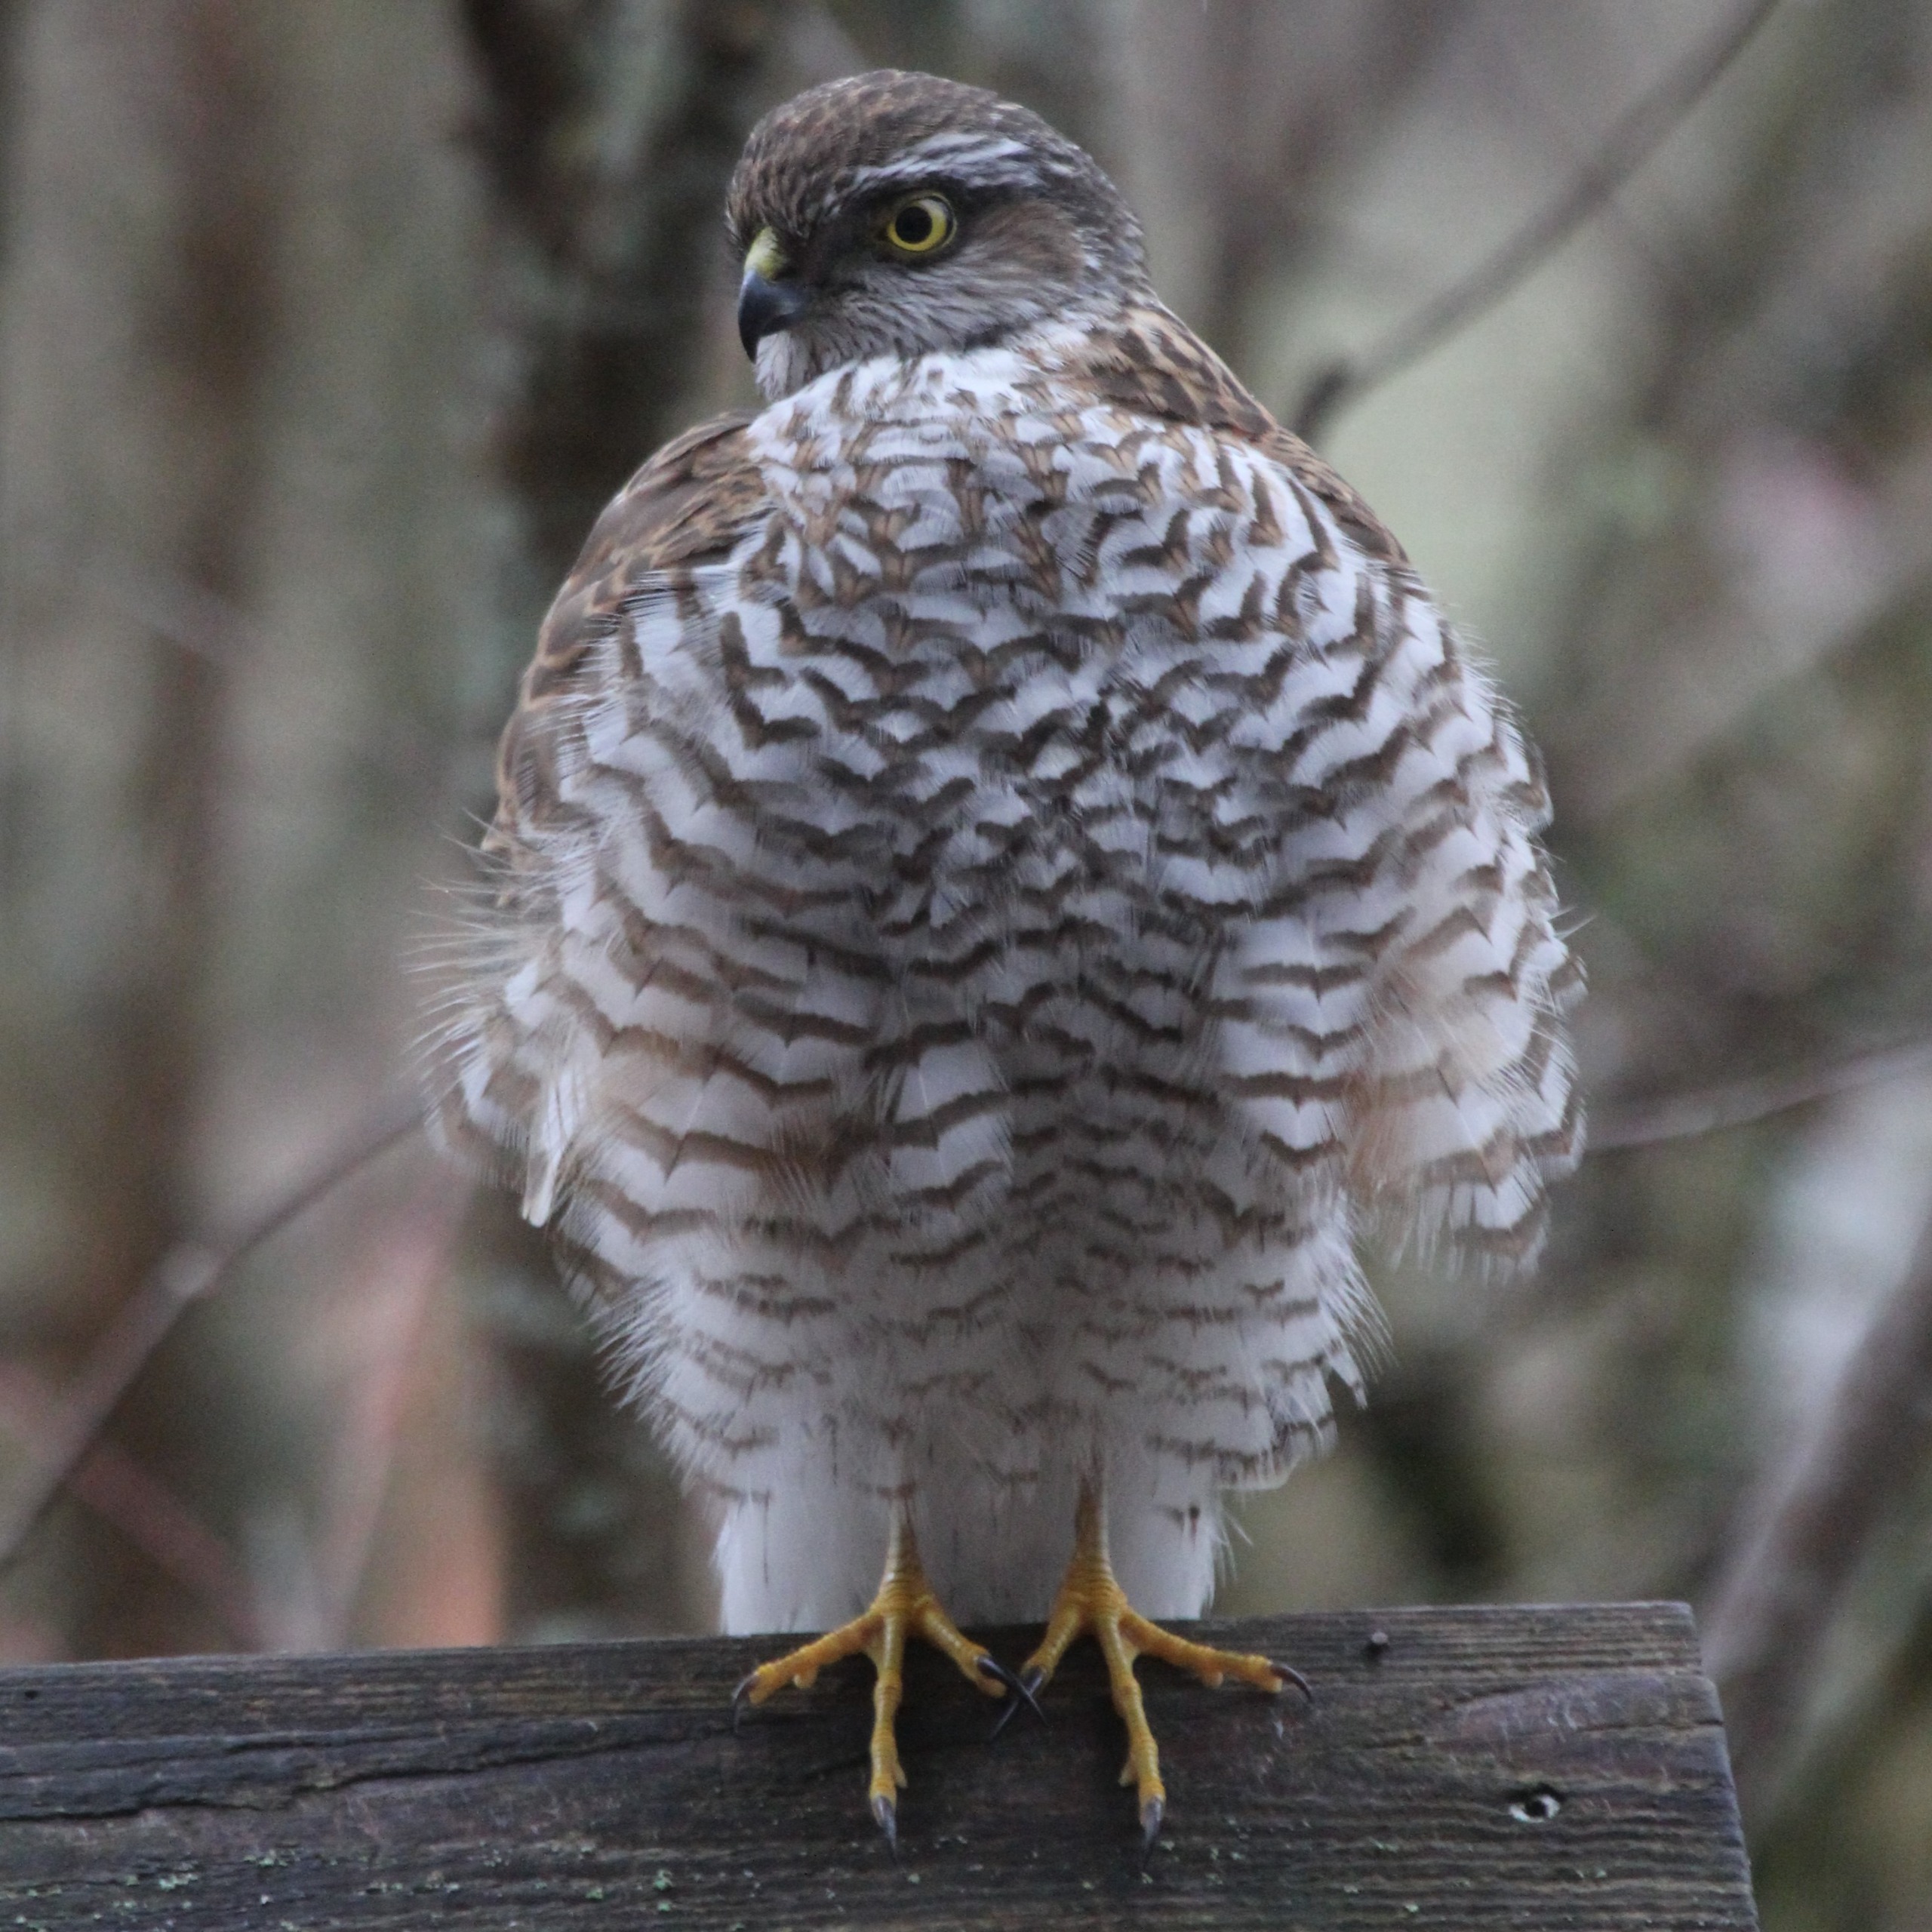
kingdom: Animalia
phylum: Chordata
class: Aves
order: Accipitriformes
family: Accipitridae
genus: Accipiter
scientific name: Accipiter nisus
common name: Spurvehøg
